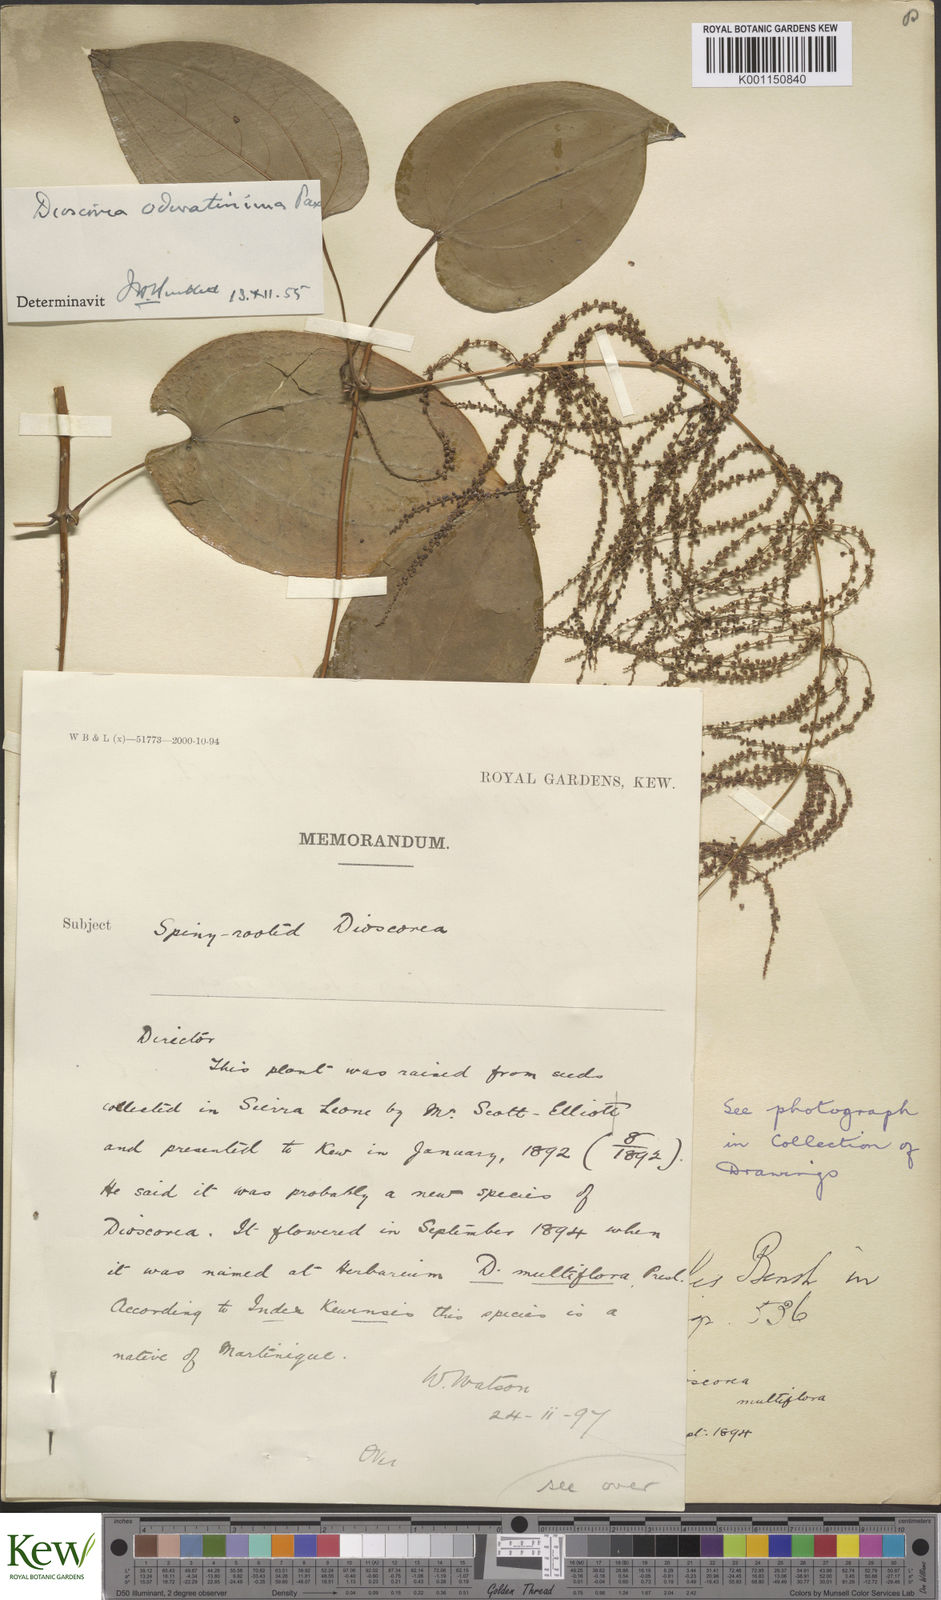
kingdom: Plantae
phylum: Tracheophyta
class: Liliopsida
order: Dioscoreales
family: Dioscoreaceae
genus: Dioscorea
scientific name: Dioscorea praehensilis
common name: Bush yam
